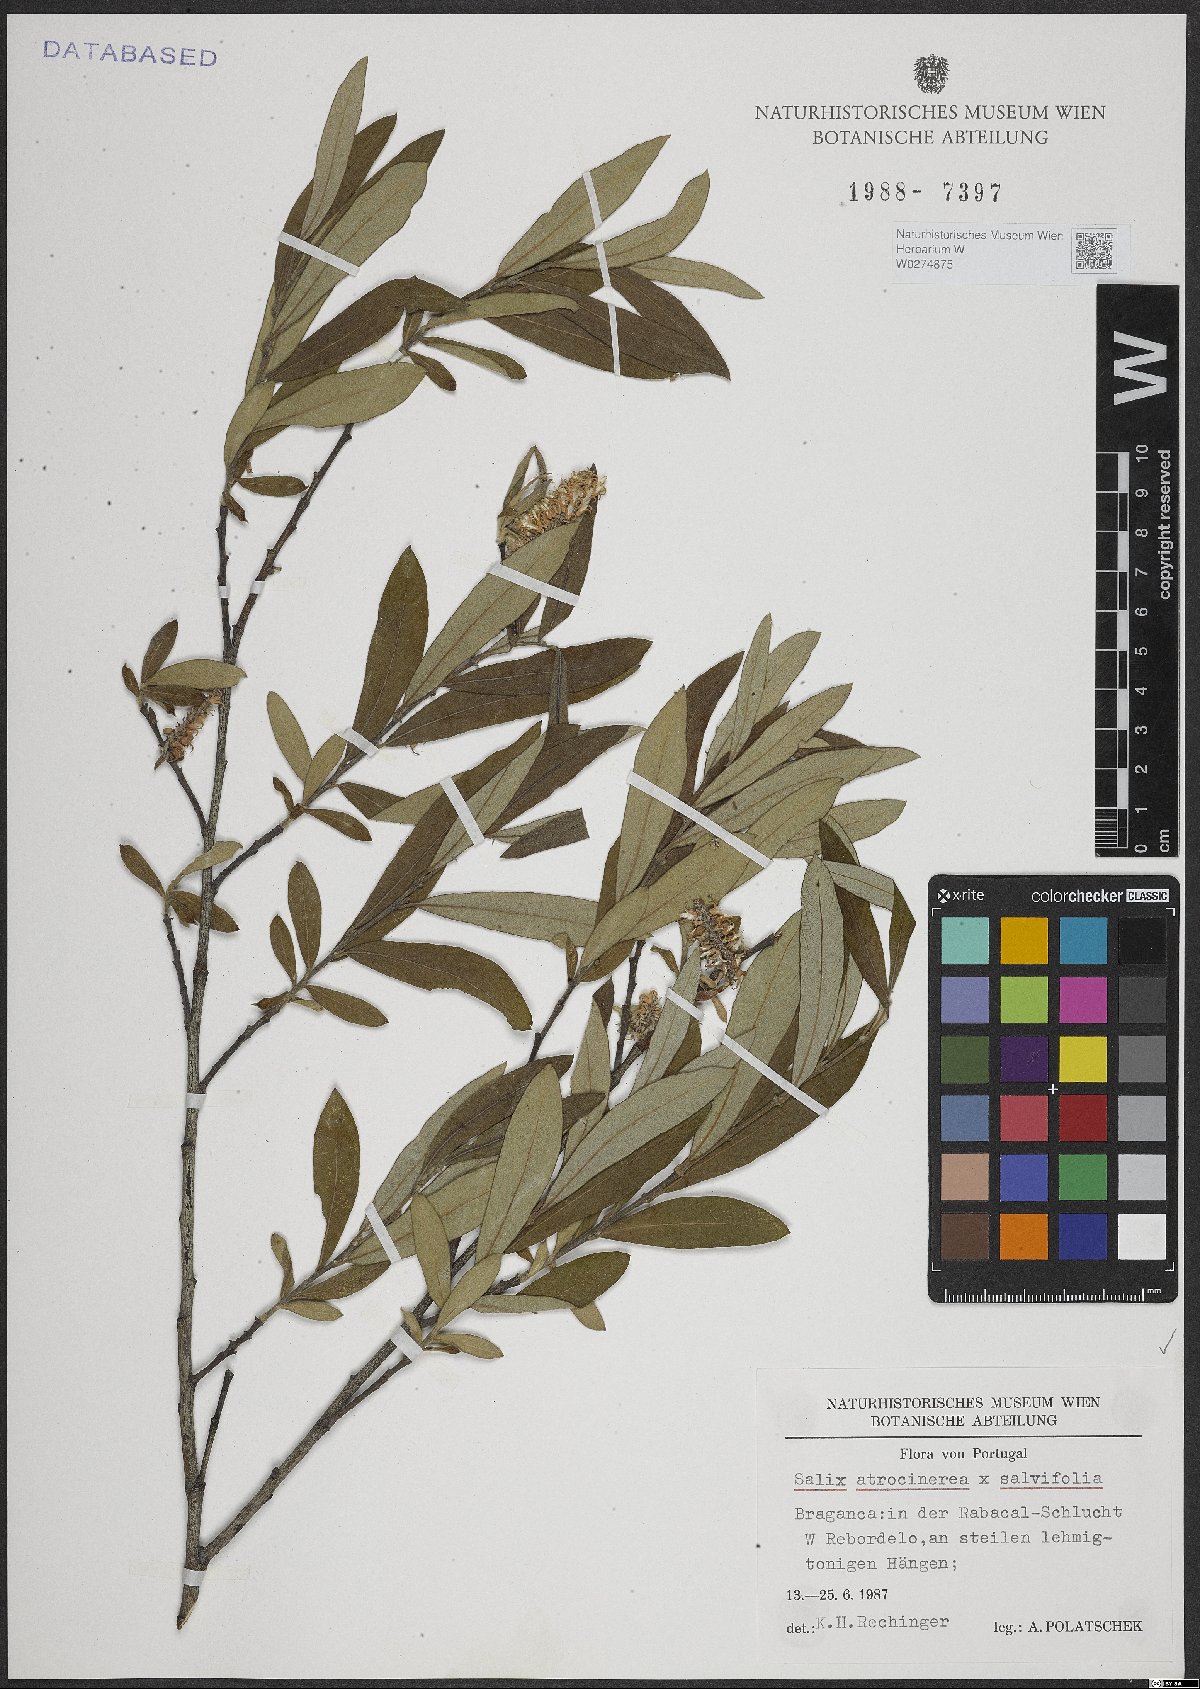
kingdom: Plantae
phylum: Tracheophyta
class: Magnoliopsida
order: Malpighiales
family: Salicaceae
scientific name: Salicaceae
